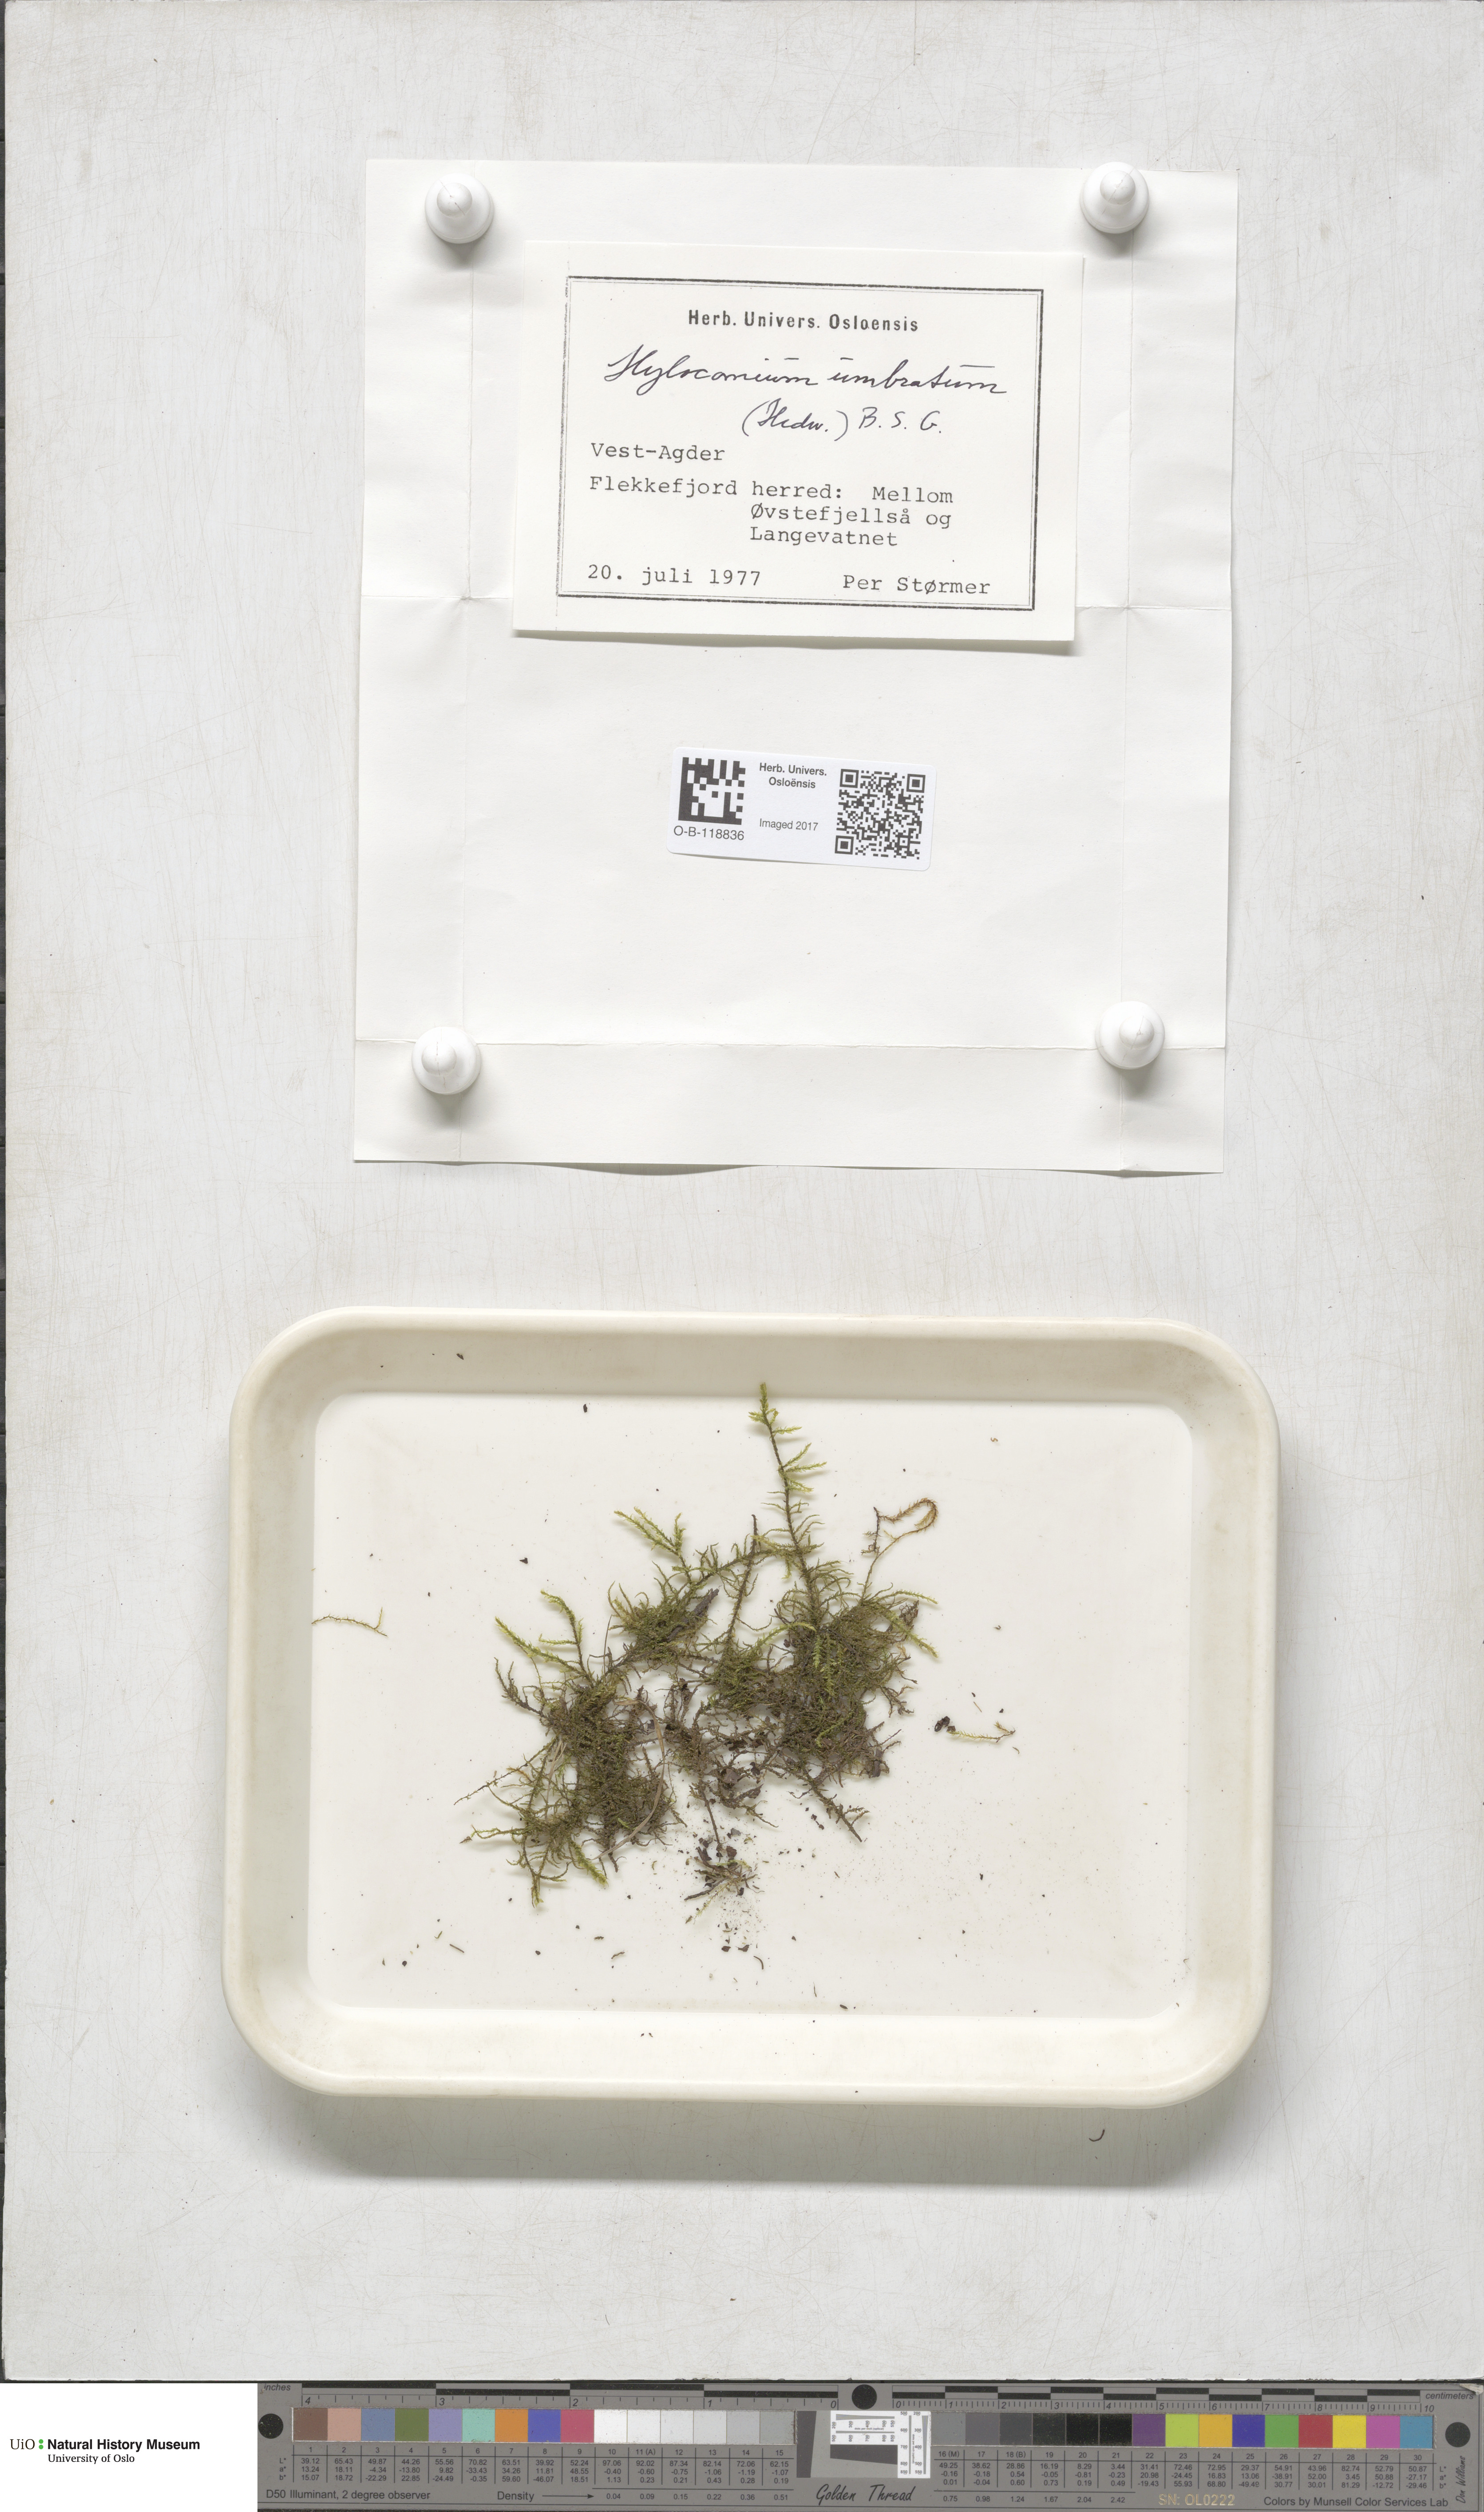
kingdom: Plantae
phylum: Bryophyta
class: Bryopsida
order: Hypnales
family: Hylocomiaceae
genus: Hylocomiastrum
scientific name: Hylocomiastrum umbratum
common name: Shaded woods moss
